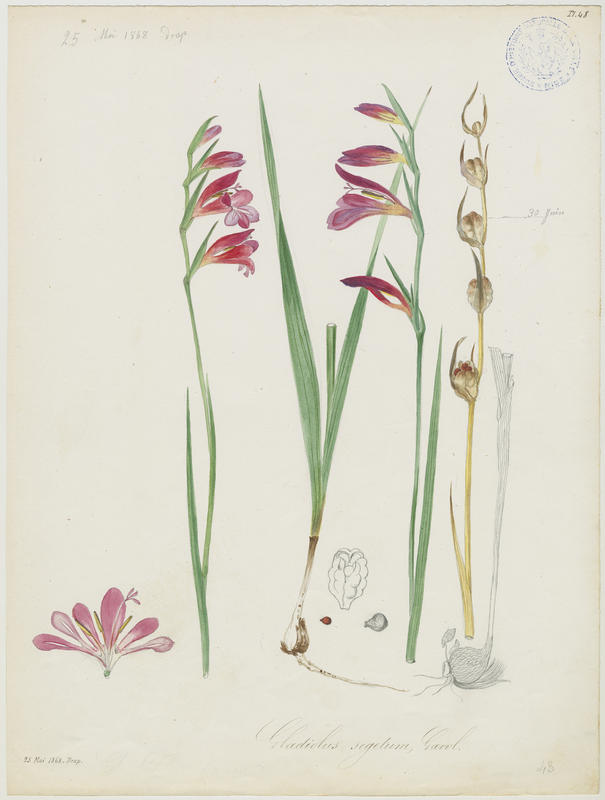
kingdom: Plantae
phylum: Tracheophyta
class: Liliopsida
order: Asparagales
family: Iridaceae
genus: Gladiolus
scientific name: Gladiolus byzantinus
